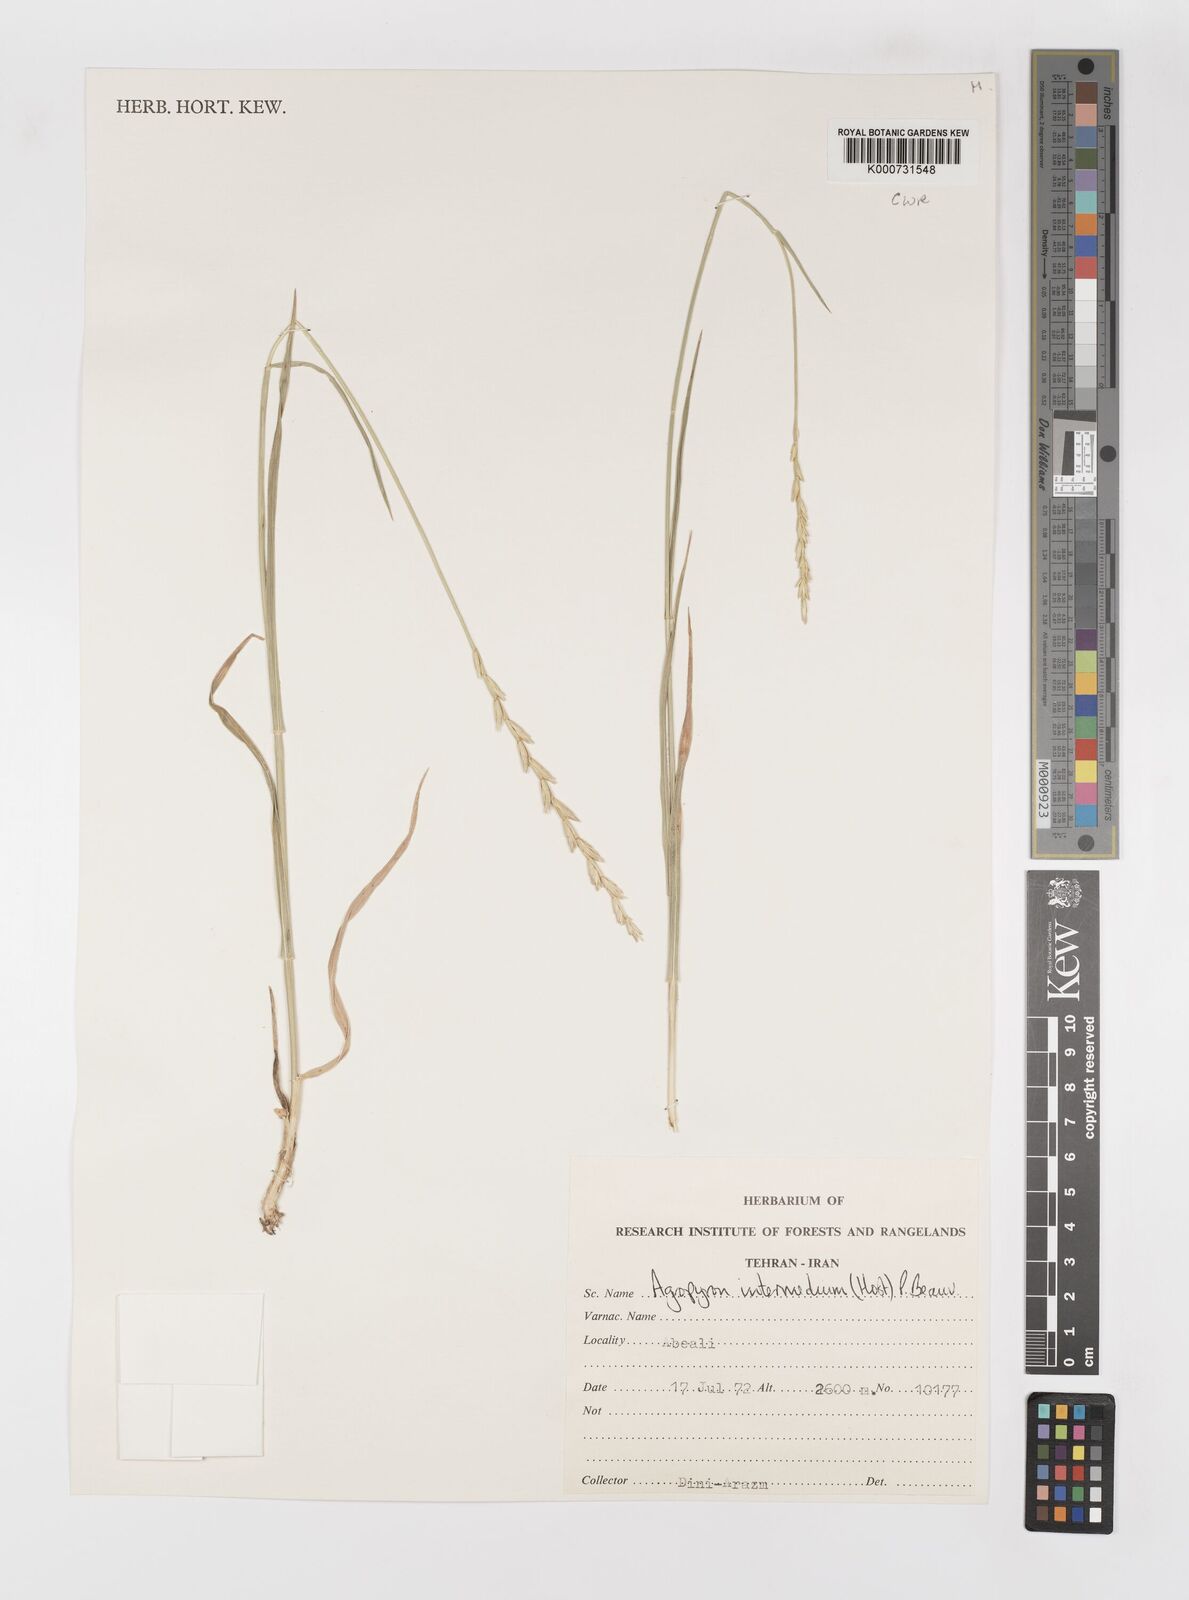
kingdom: Plantae
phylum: Tracheophyta
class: Liliopsida
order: Poales
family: Poaceae
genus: Thinopyrum
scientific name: Thinopyrum intermedium
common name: Intermediate wheatgrass
